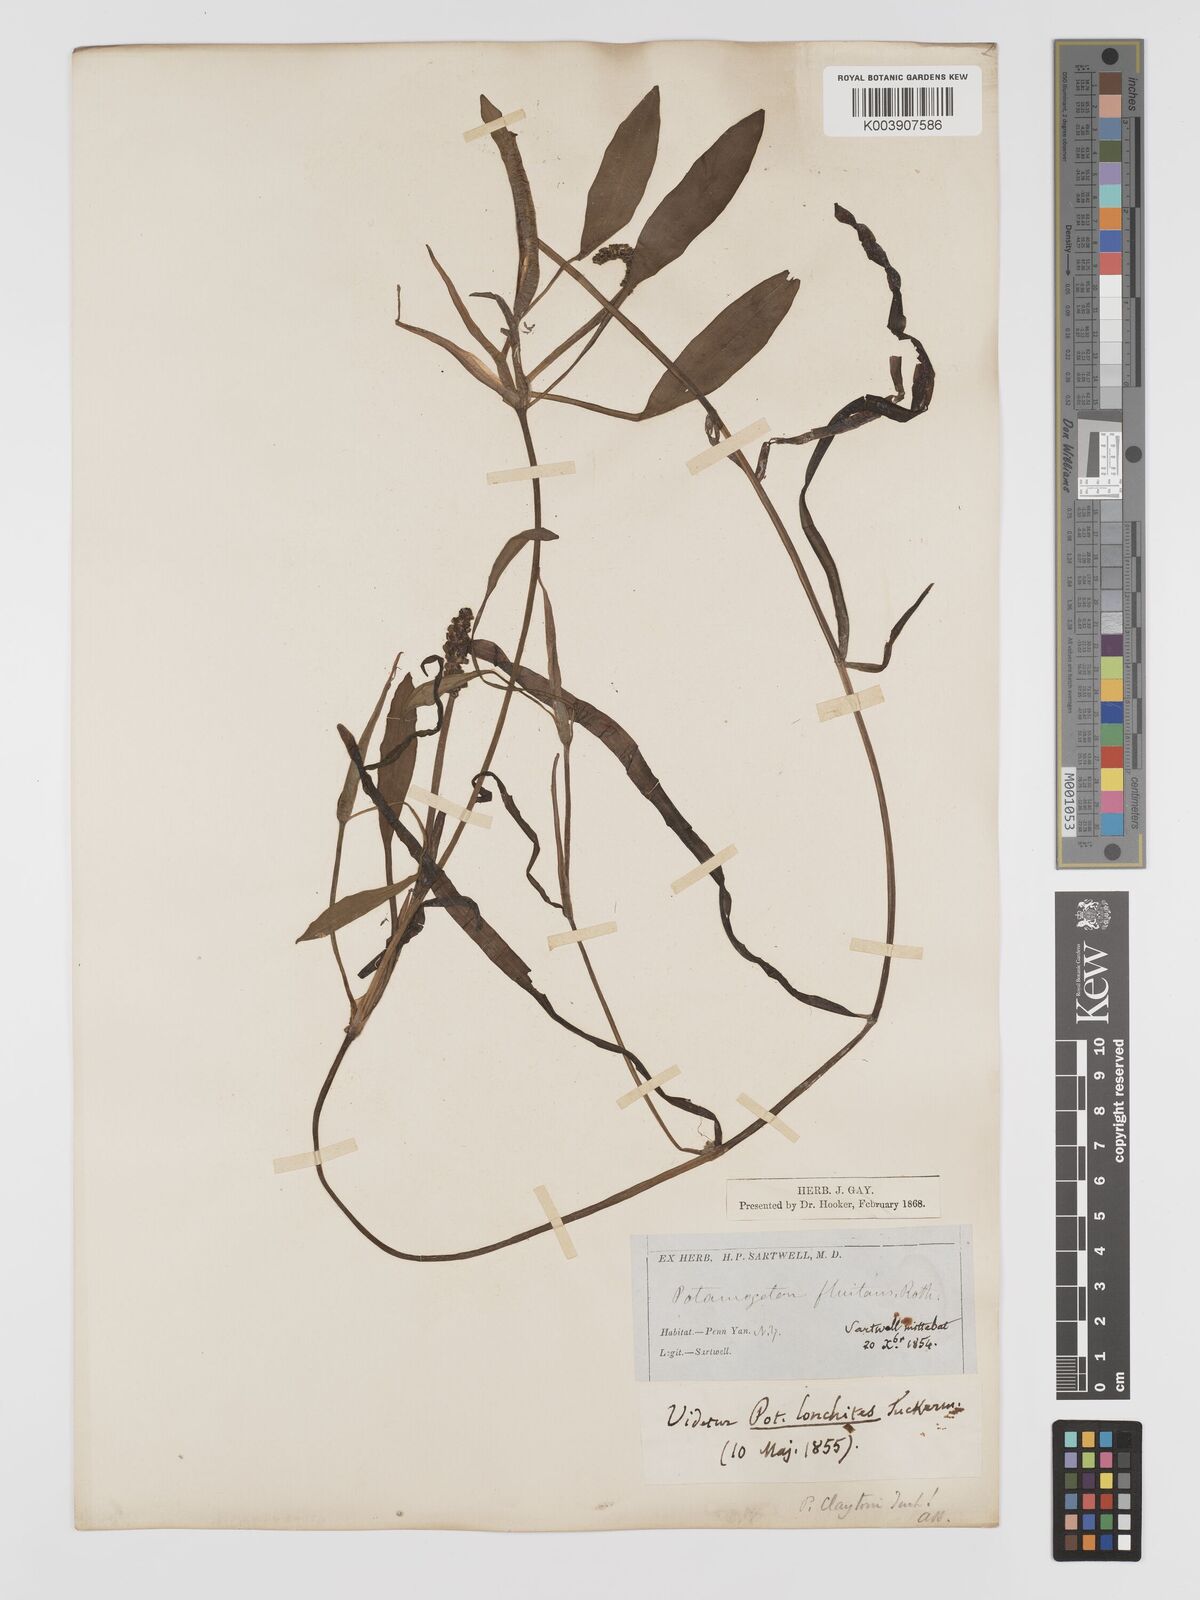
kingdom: Plantae
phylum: Tracheophyta
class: Liliopsida
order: Alismatales
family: Potamogetonaceae
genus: Potamogeton
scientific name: Potamogeton epihydrus
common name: American pondweed
